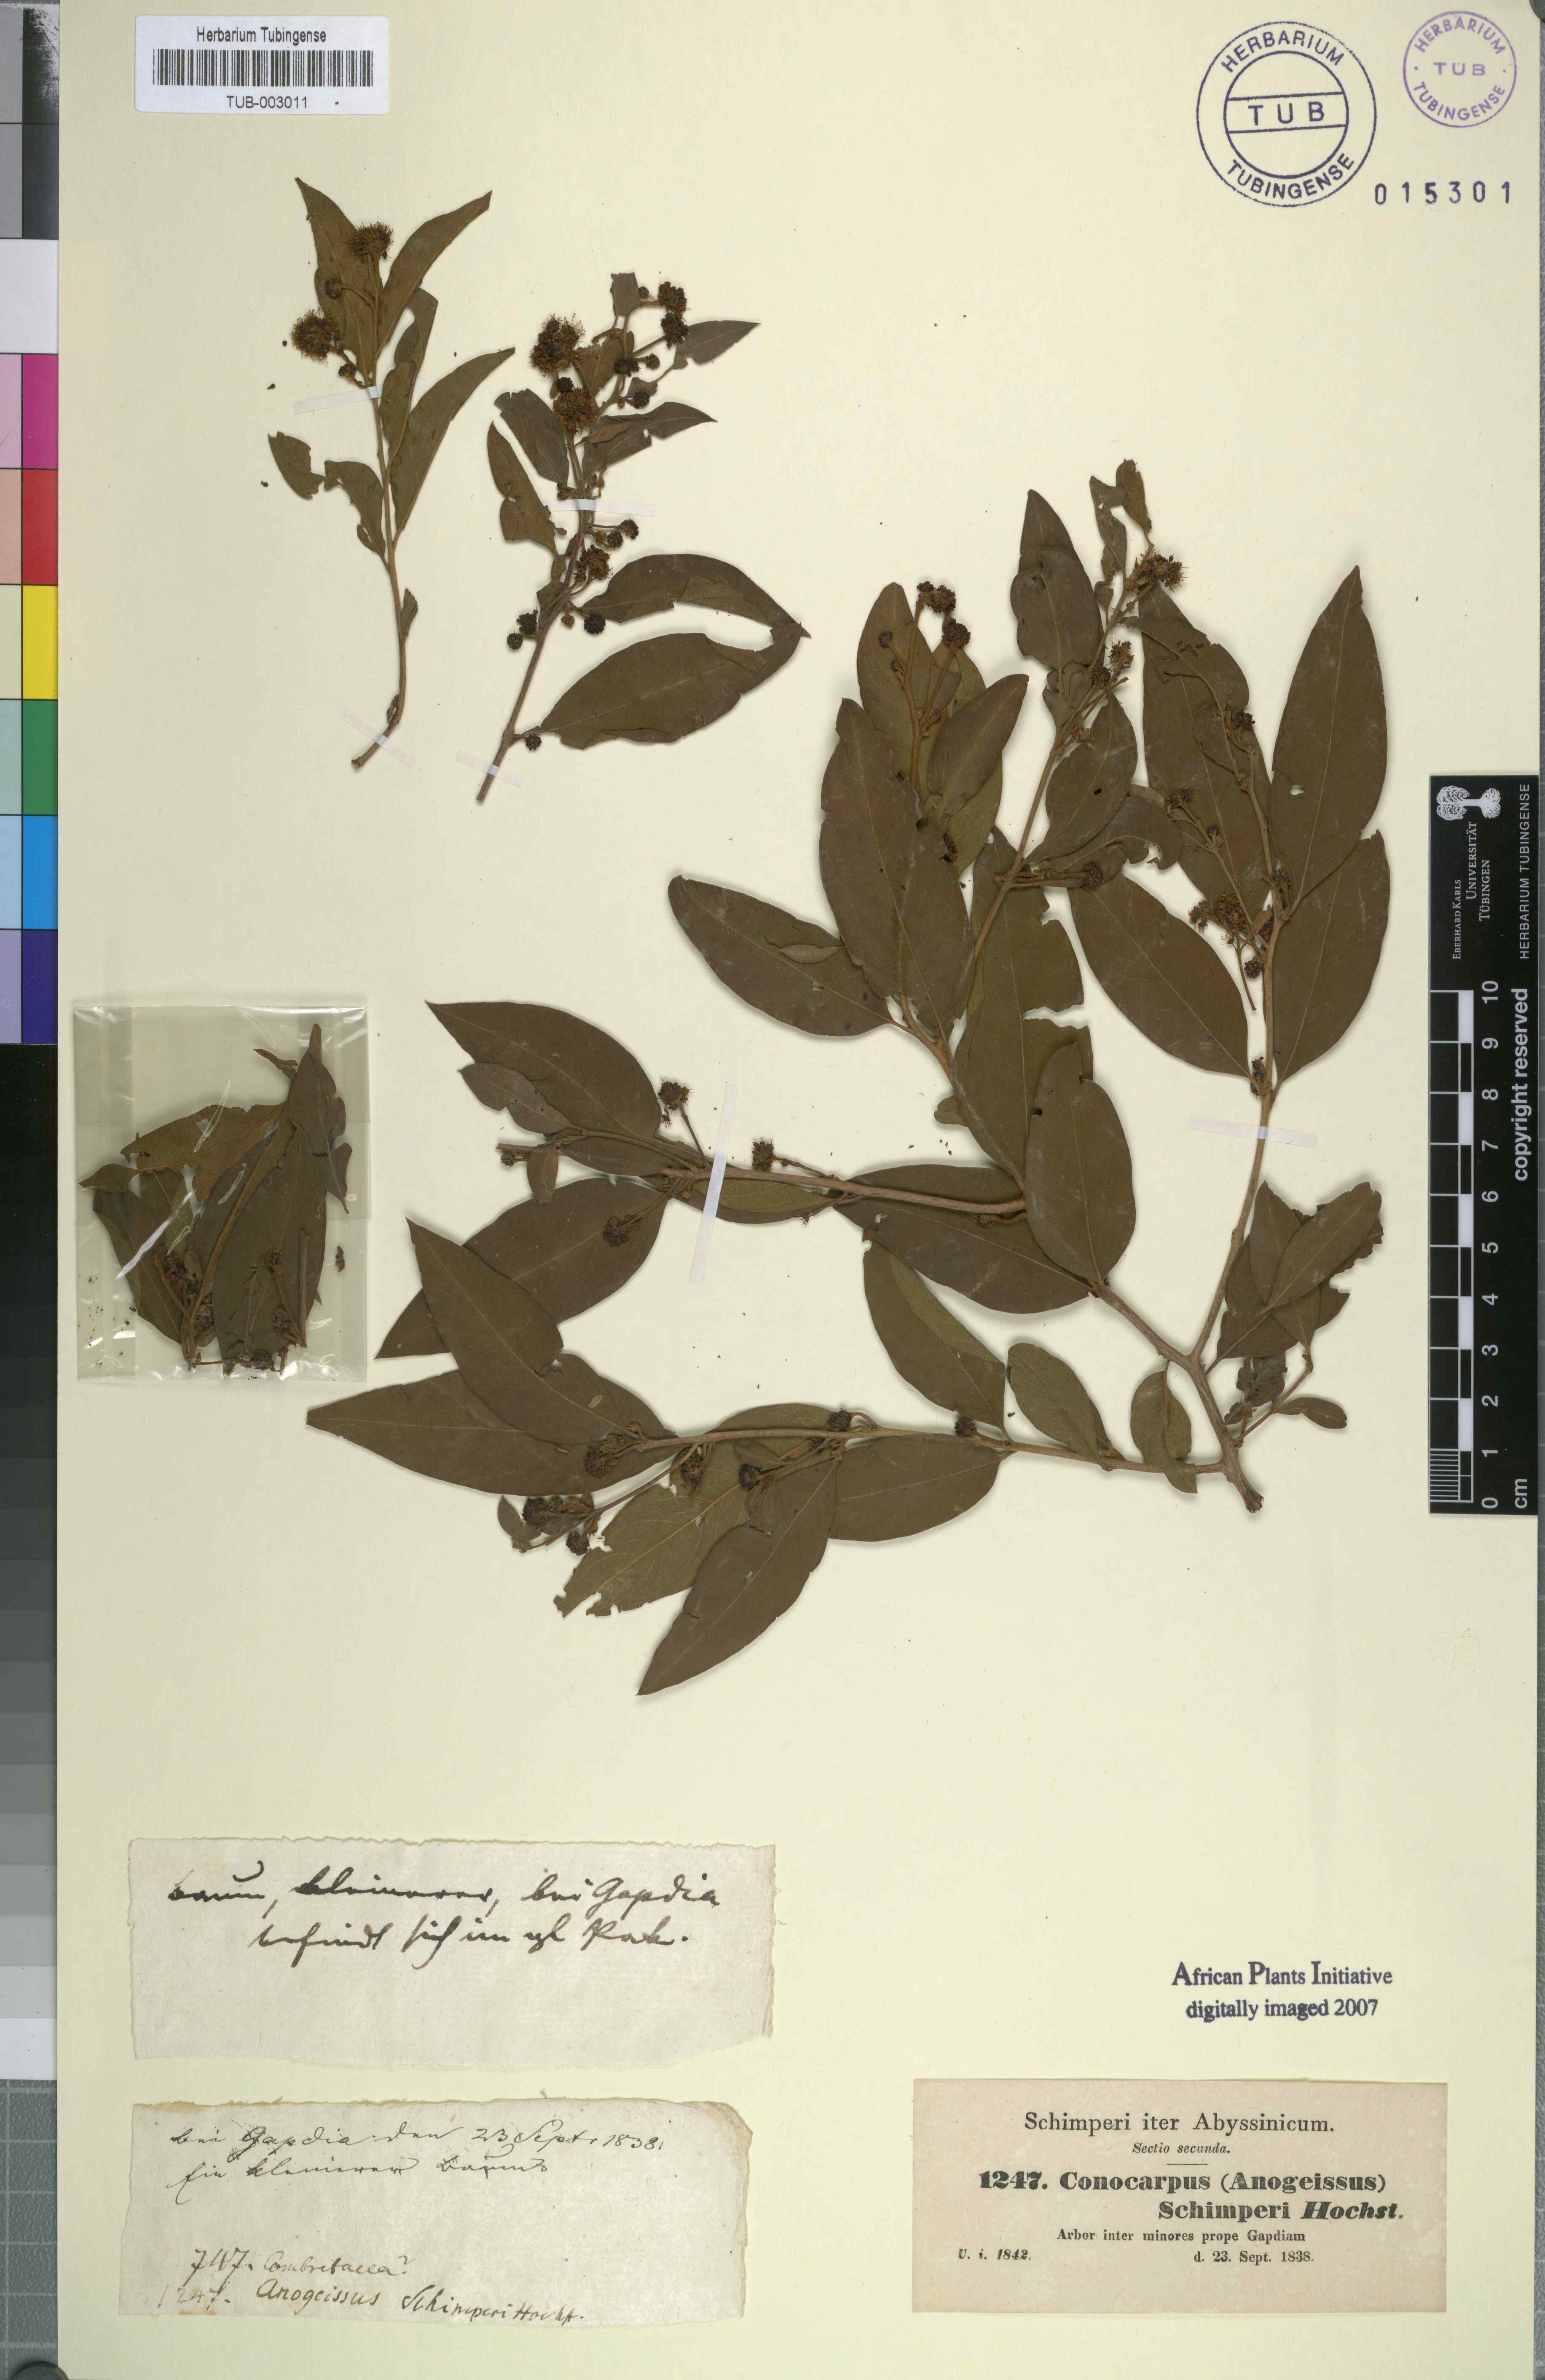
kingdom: Plantae
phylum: Tracheophyta
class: Magnoliopsida
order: Myrtales
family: Combretaceae
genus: Terminalia
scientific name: Terminalia leiocarpa
